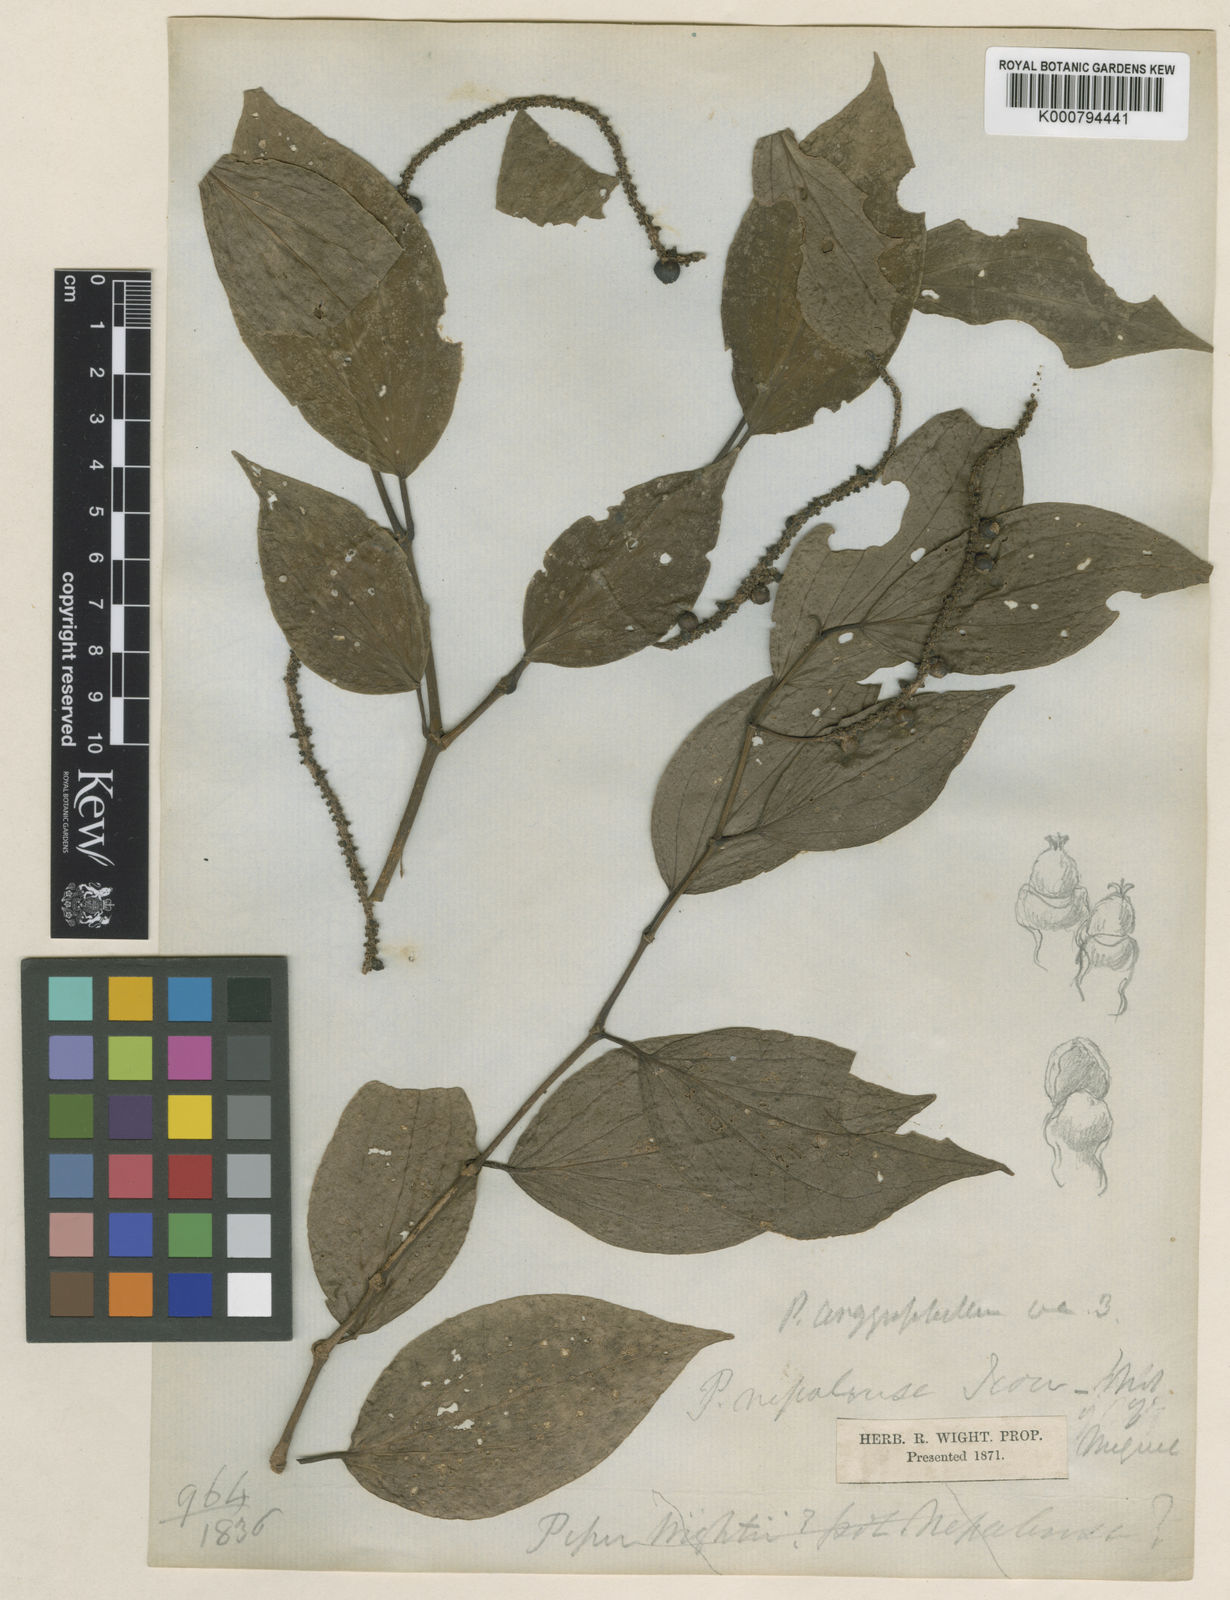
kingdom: Plantae
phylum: Tracheophyta
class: Magnoliopsida
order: Piperales
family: Piperaceae
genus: Piper
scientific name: Piper argyrophyllum
